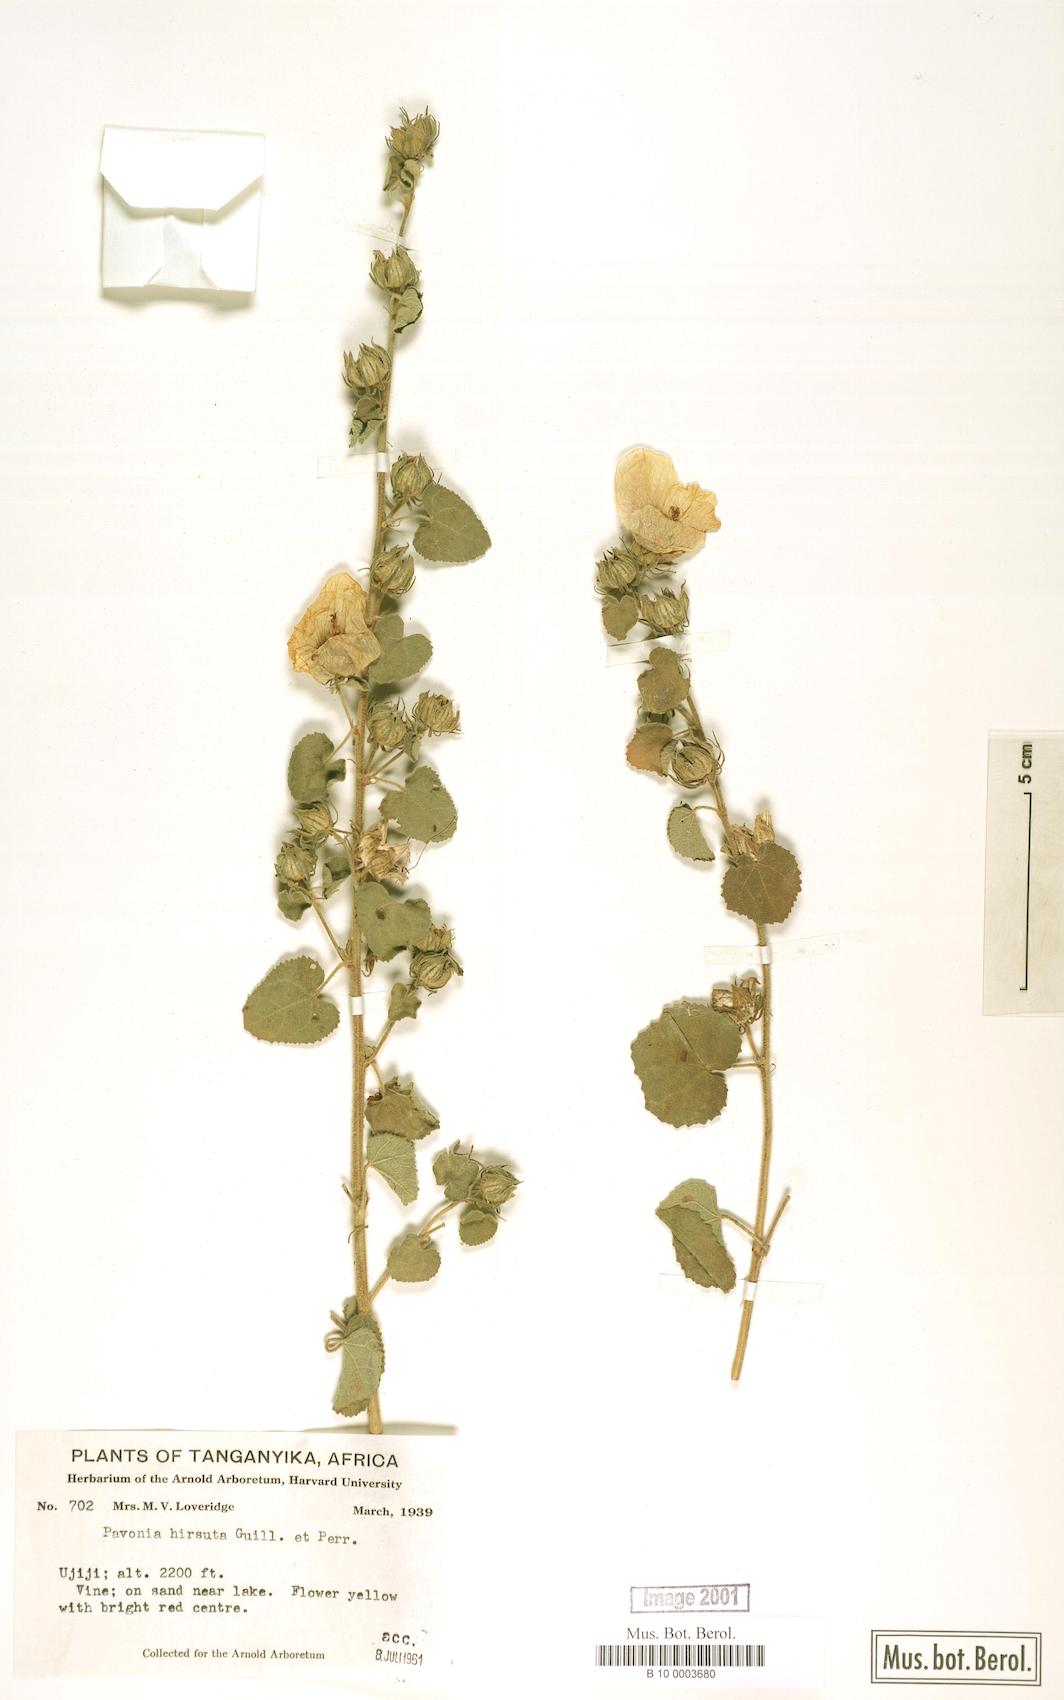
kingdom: Plantae
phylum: Tracheophyta
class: Magnoliopsida
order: Malvales
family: Malvaceae
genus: Pavonia
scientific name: Pavonia senegalensis
